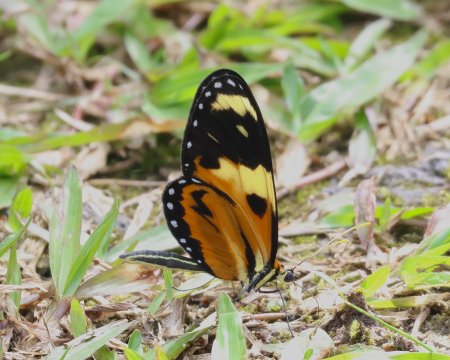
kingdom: Animalia
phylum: Arthropoda
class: Insecta
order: Lepidoptera
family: Nymphalidae
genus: Mechanitis
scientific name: Mechanitis lysimnia
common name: Lysimnia Tigerwing
